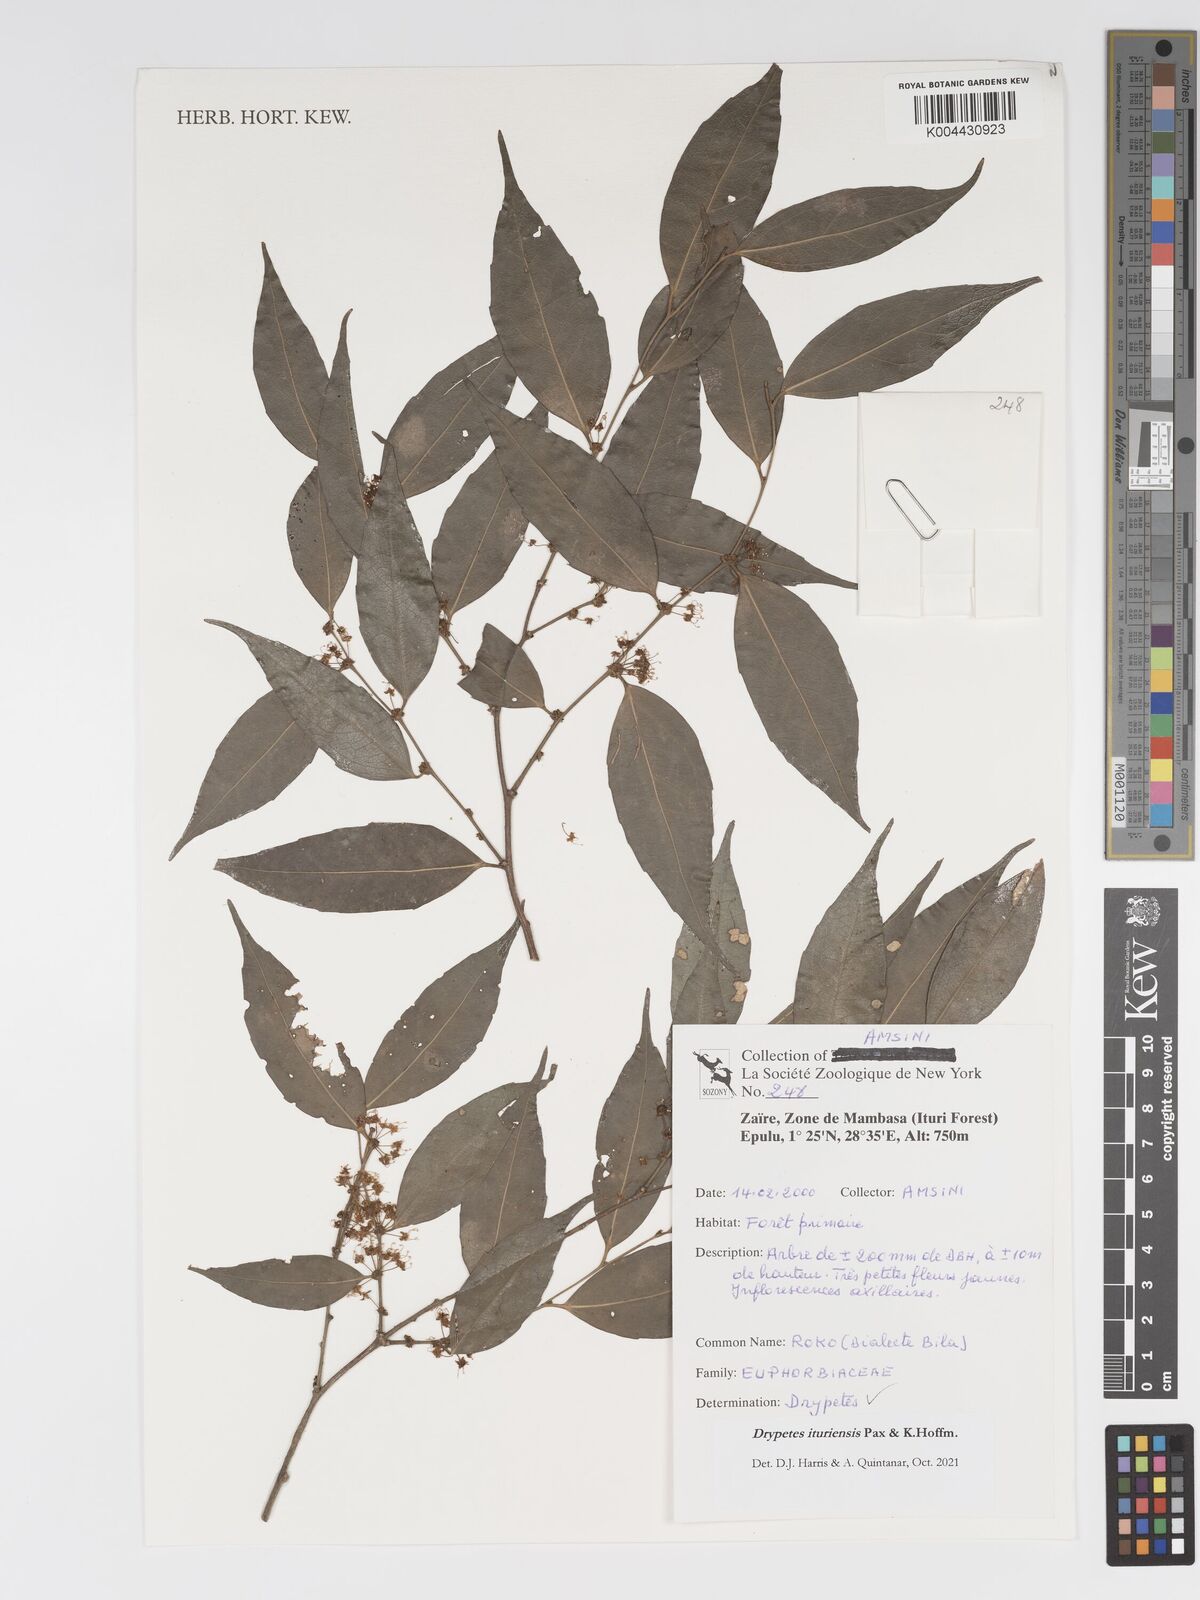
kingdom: Plantae
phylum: Tracheophyta
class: Magnoliopsida
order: Malpighiales
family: Putranjivaceae
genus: Drypetes
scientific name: Drypetes ituriensis
